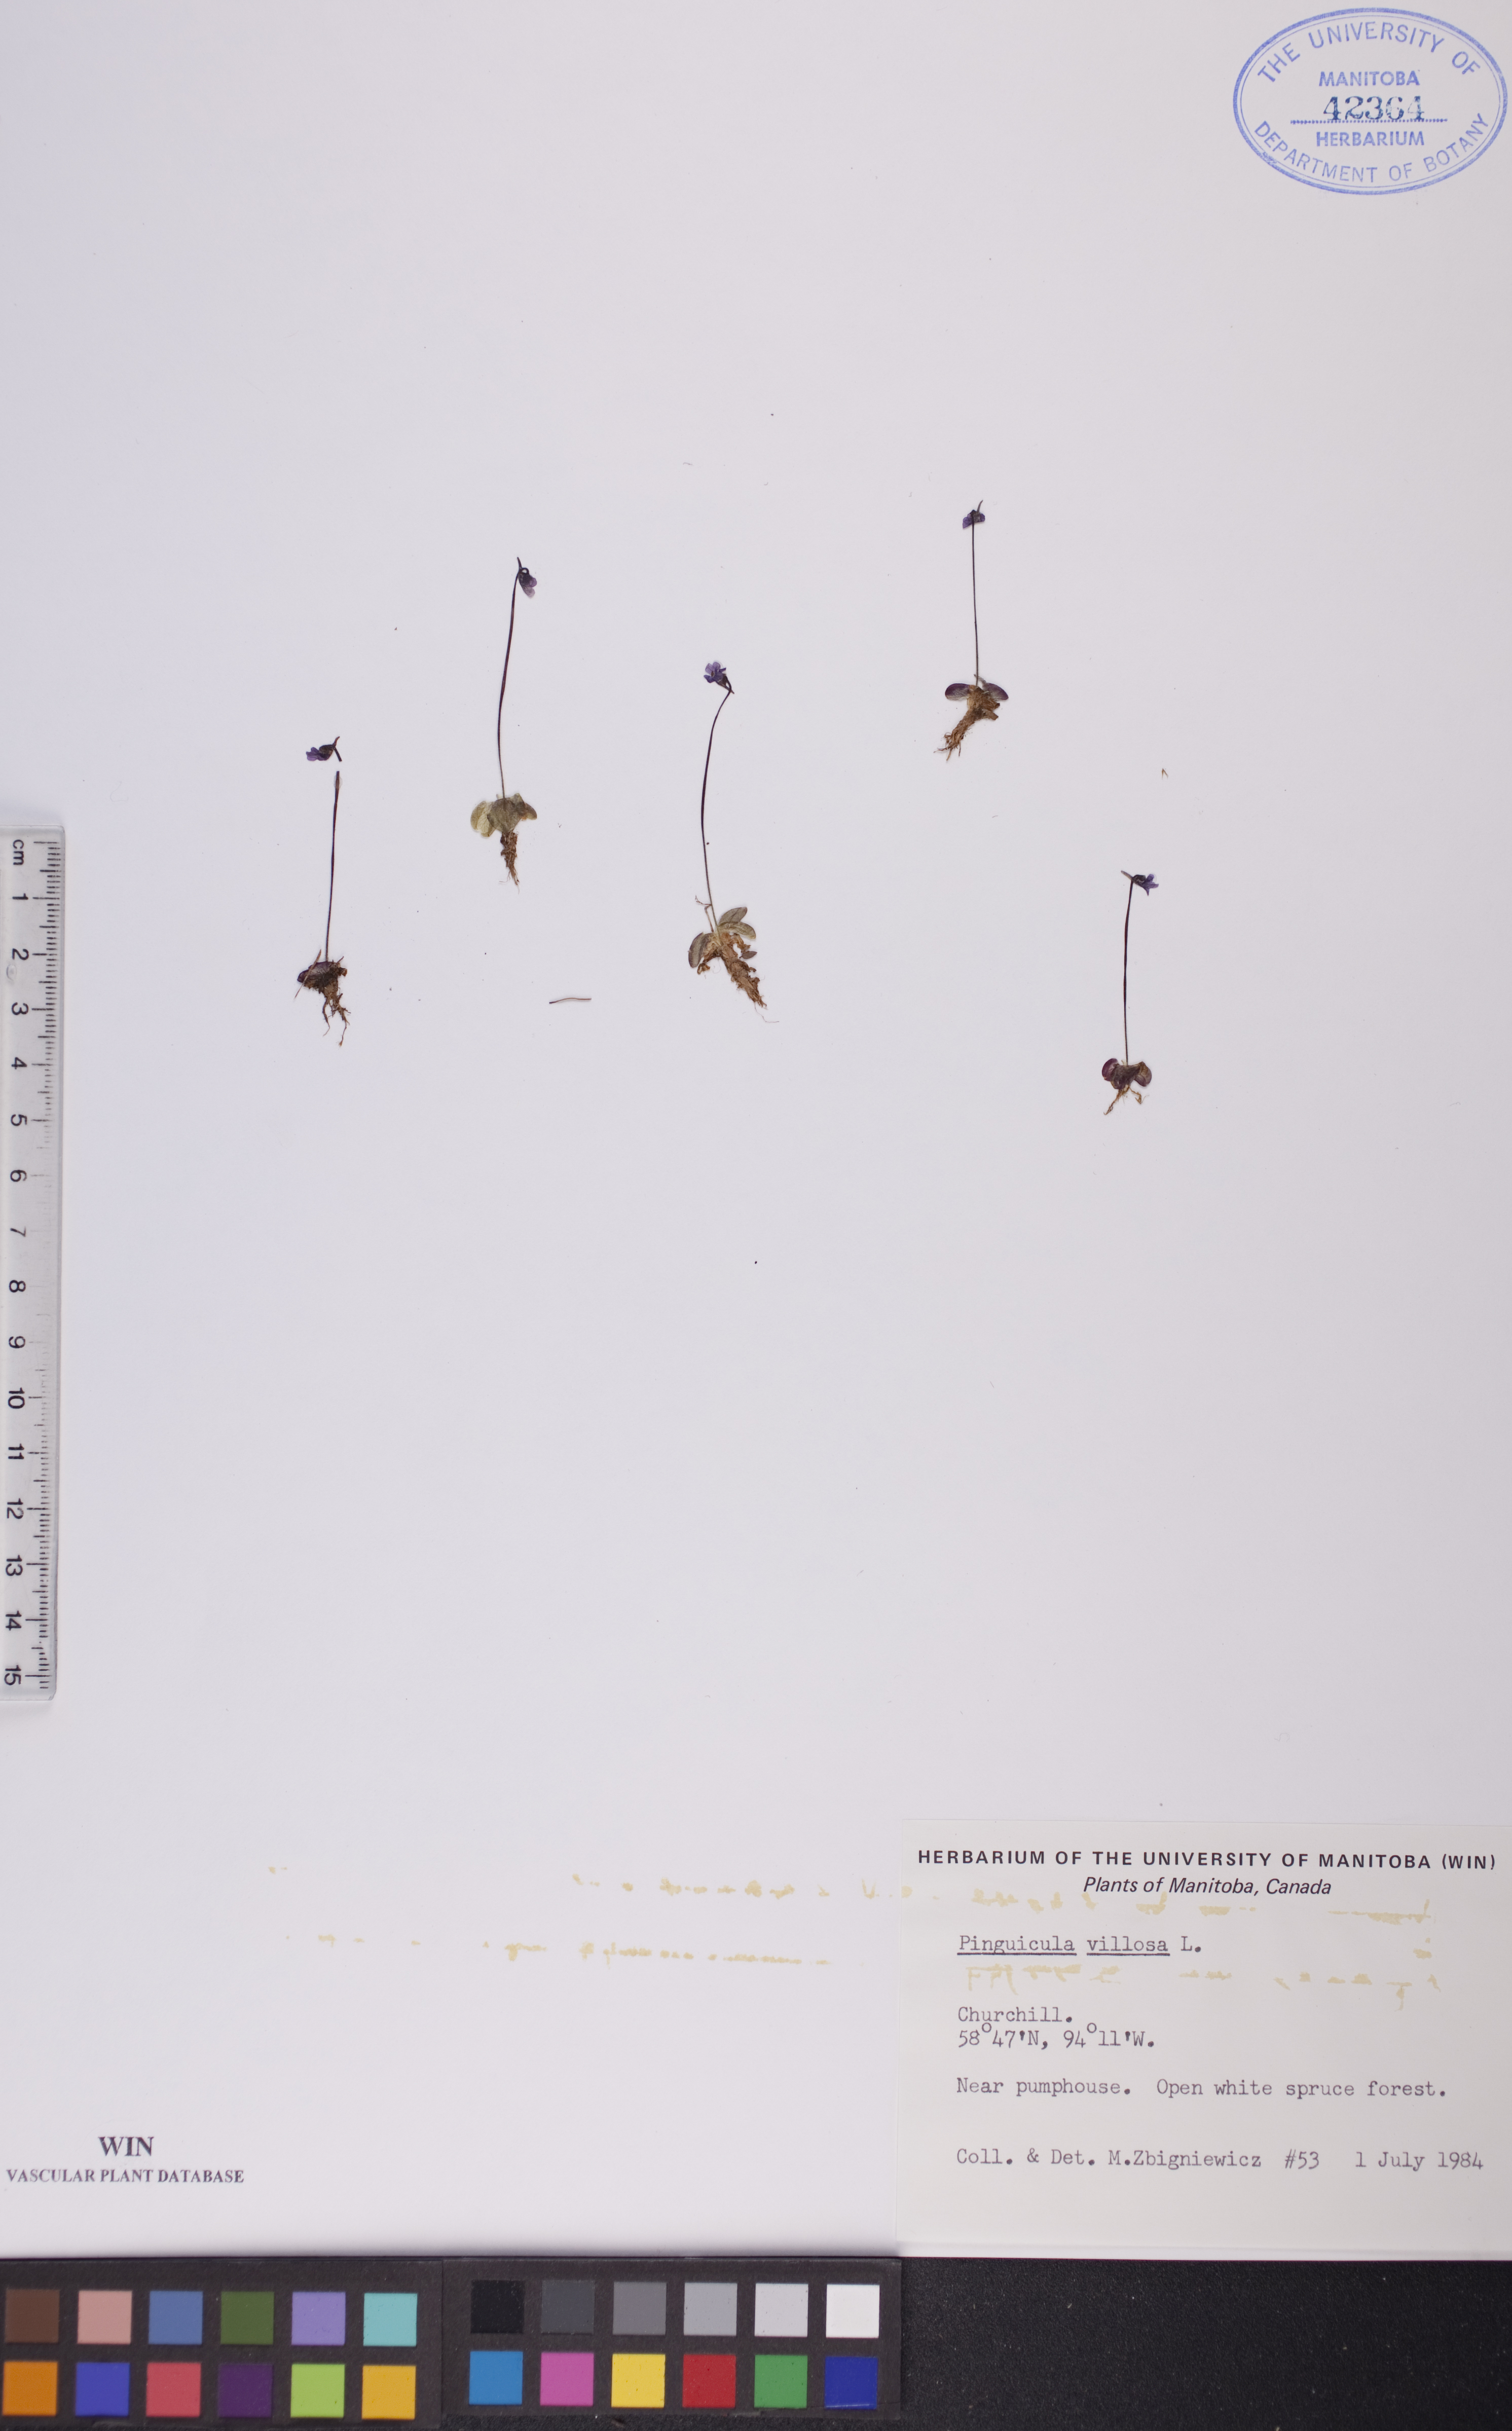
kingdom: Plantae
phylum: Tracheophyta
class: Magnoliopsida
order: Lamiales
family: Lentibulariaceae
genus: Pinguicula
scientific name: Pinguicula villosa
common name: Hairy butterwort
